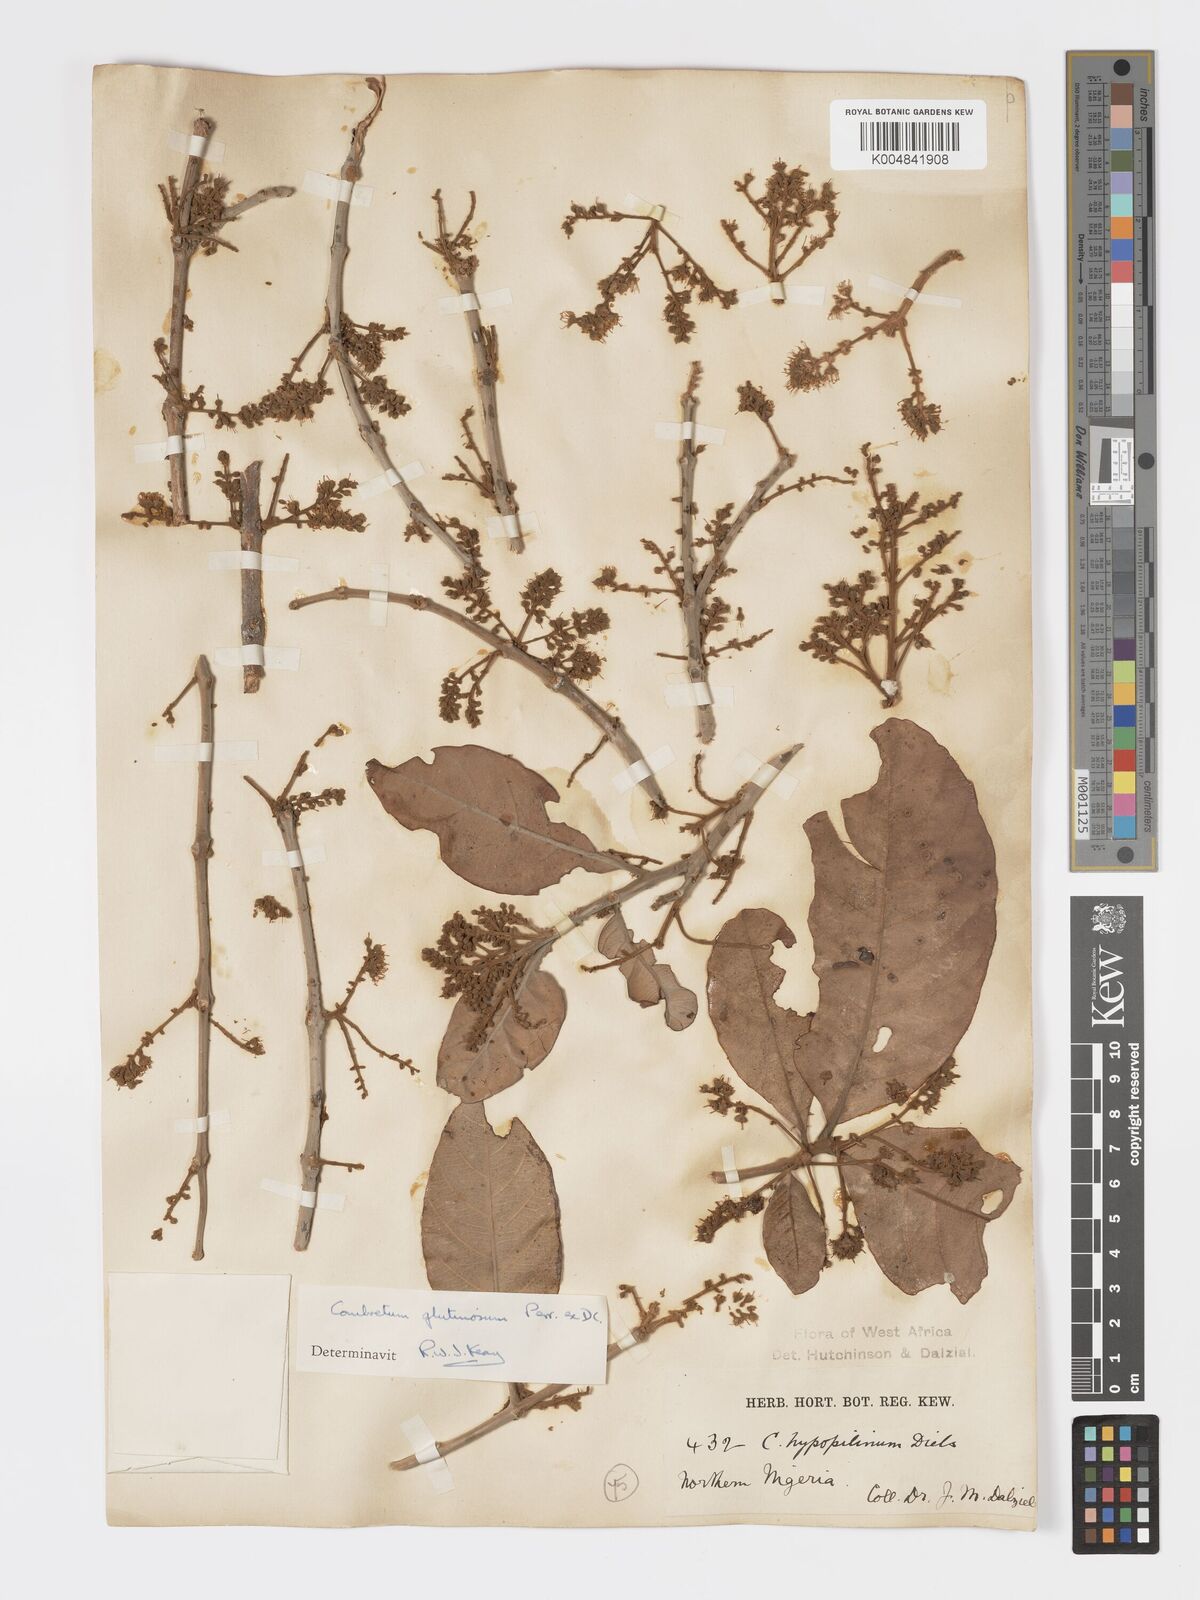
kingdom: Plantae
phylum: Tracheophyta
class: Magnoliopsida
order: Myrtales
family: Combretaceae
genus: Combretum
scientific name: Combretum
